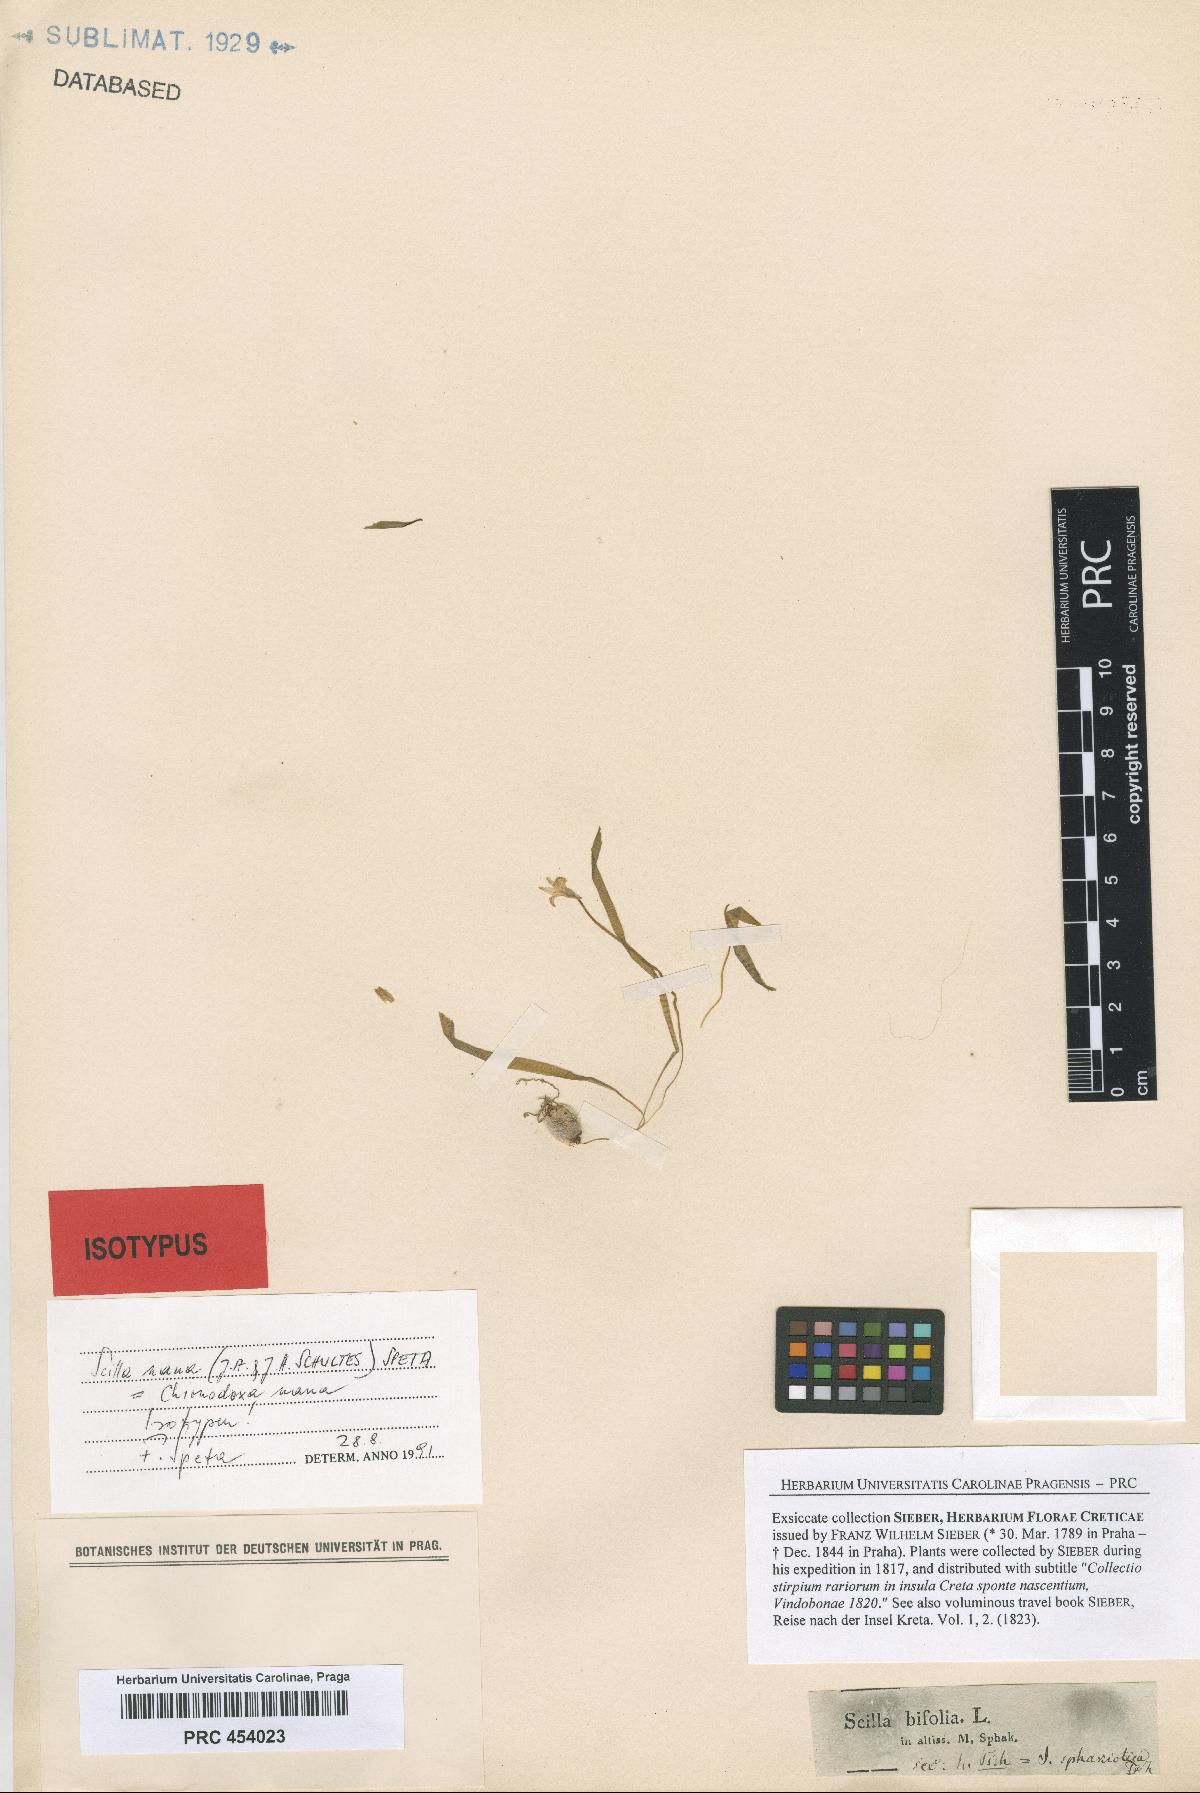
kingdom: Plantae
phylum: Tracheophyta
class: Liliopsida
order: Asparagales
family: Asparagaceae
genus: Scilla
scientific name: Scilla nana
